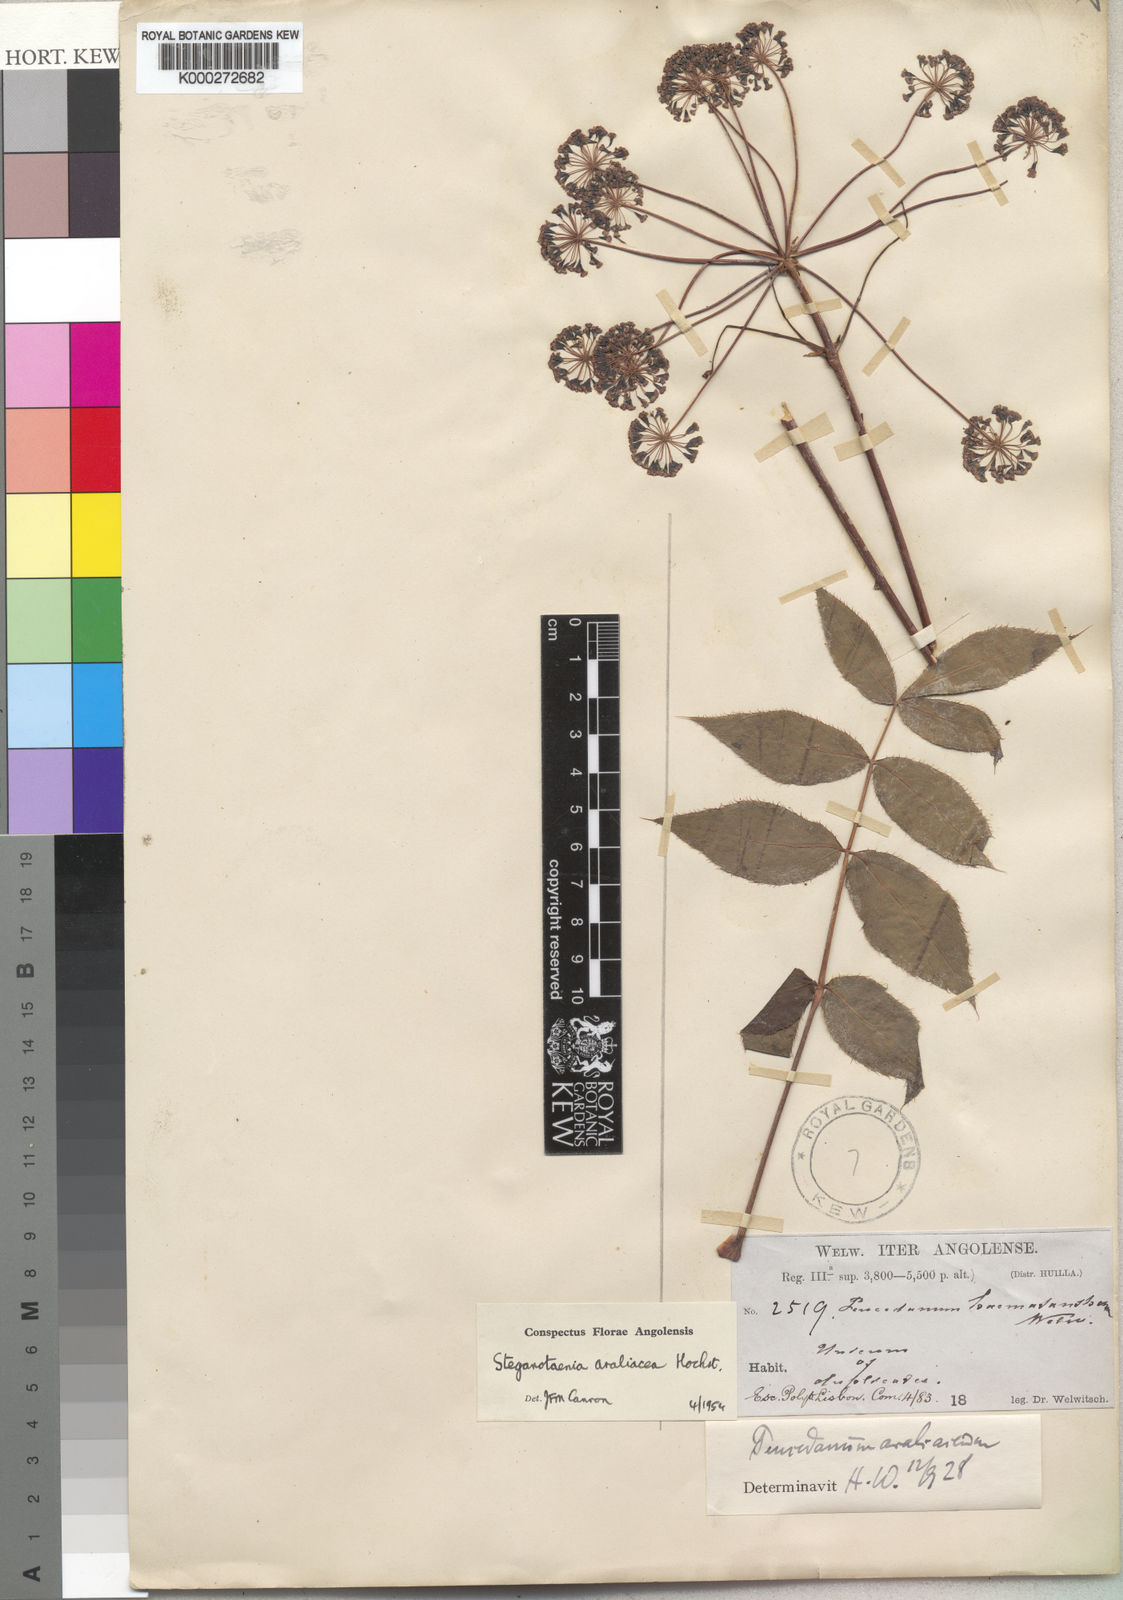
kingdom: Plantae
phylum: Tracheophyta
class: Magnoliopsida
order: Apiales
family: Apiaceae
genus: Steganotaenia
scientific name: Steganotaenia araliacea
